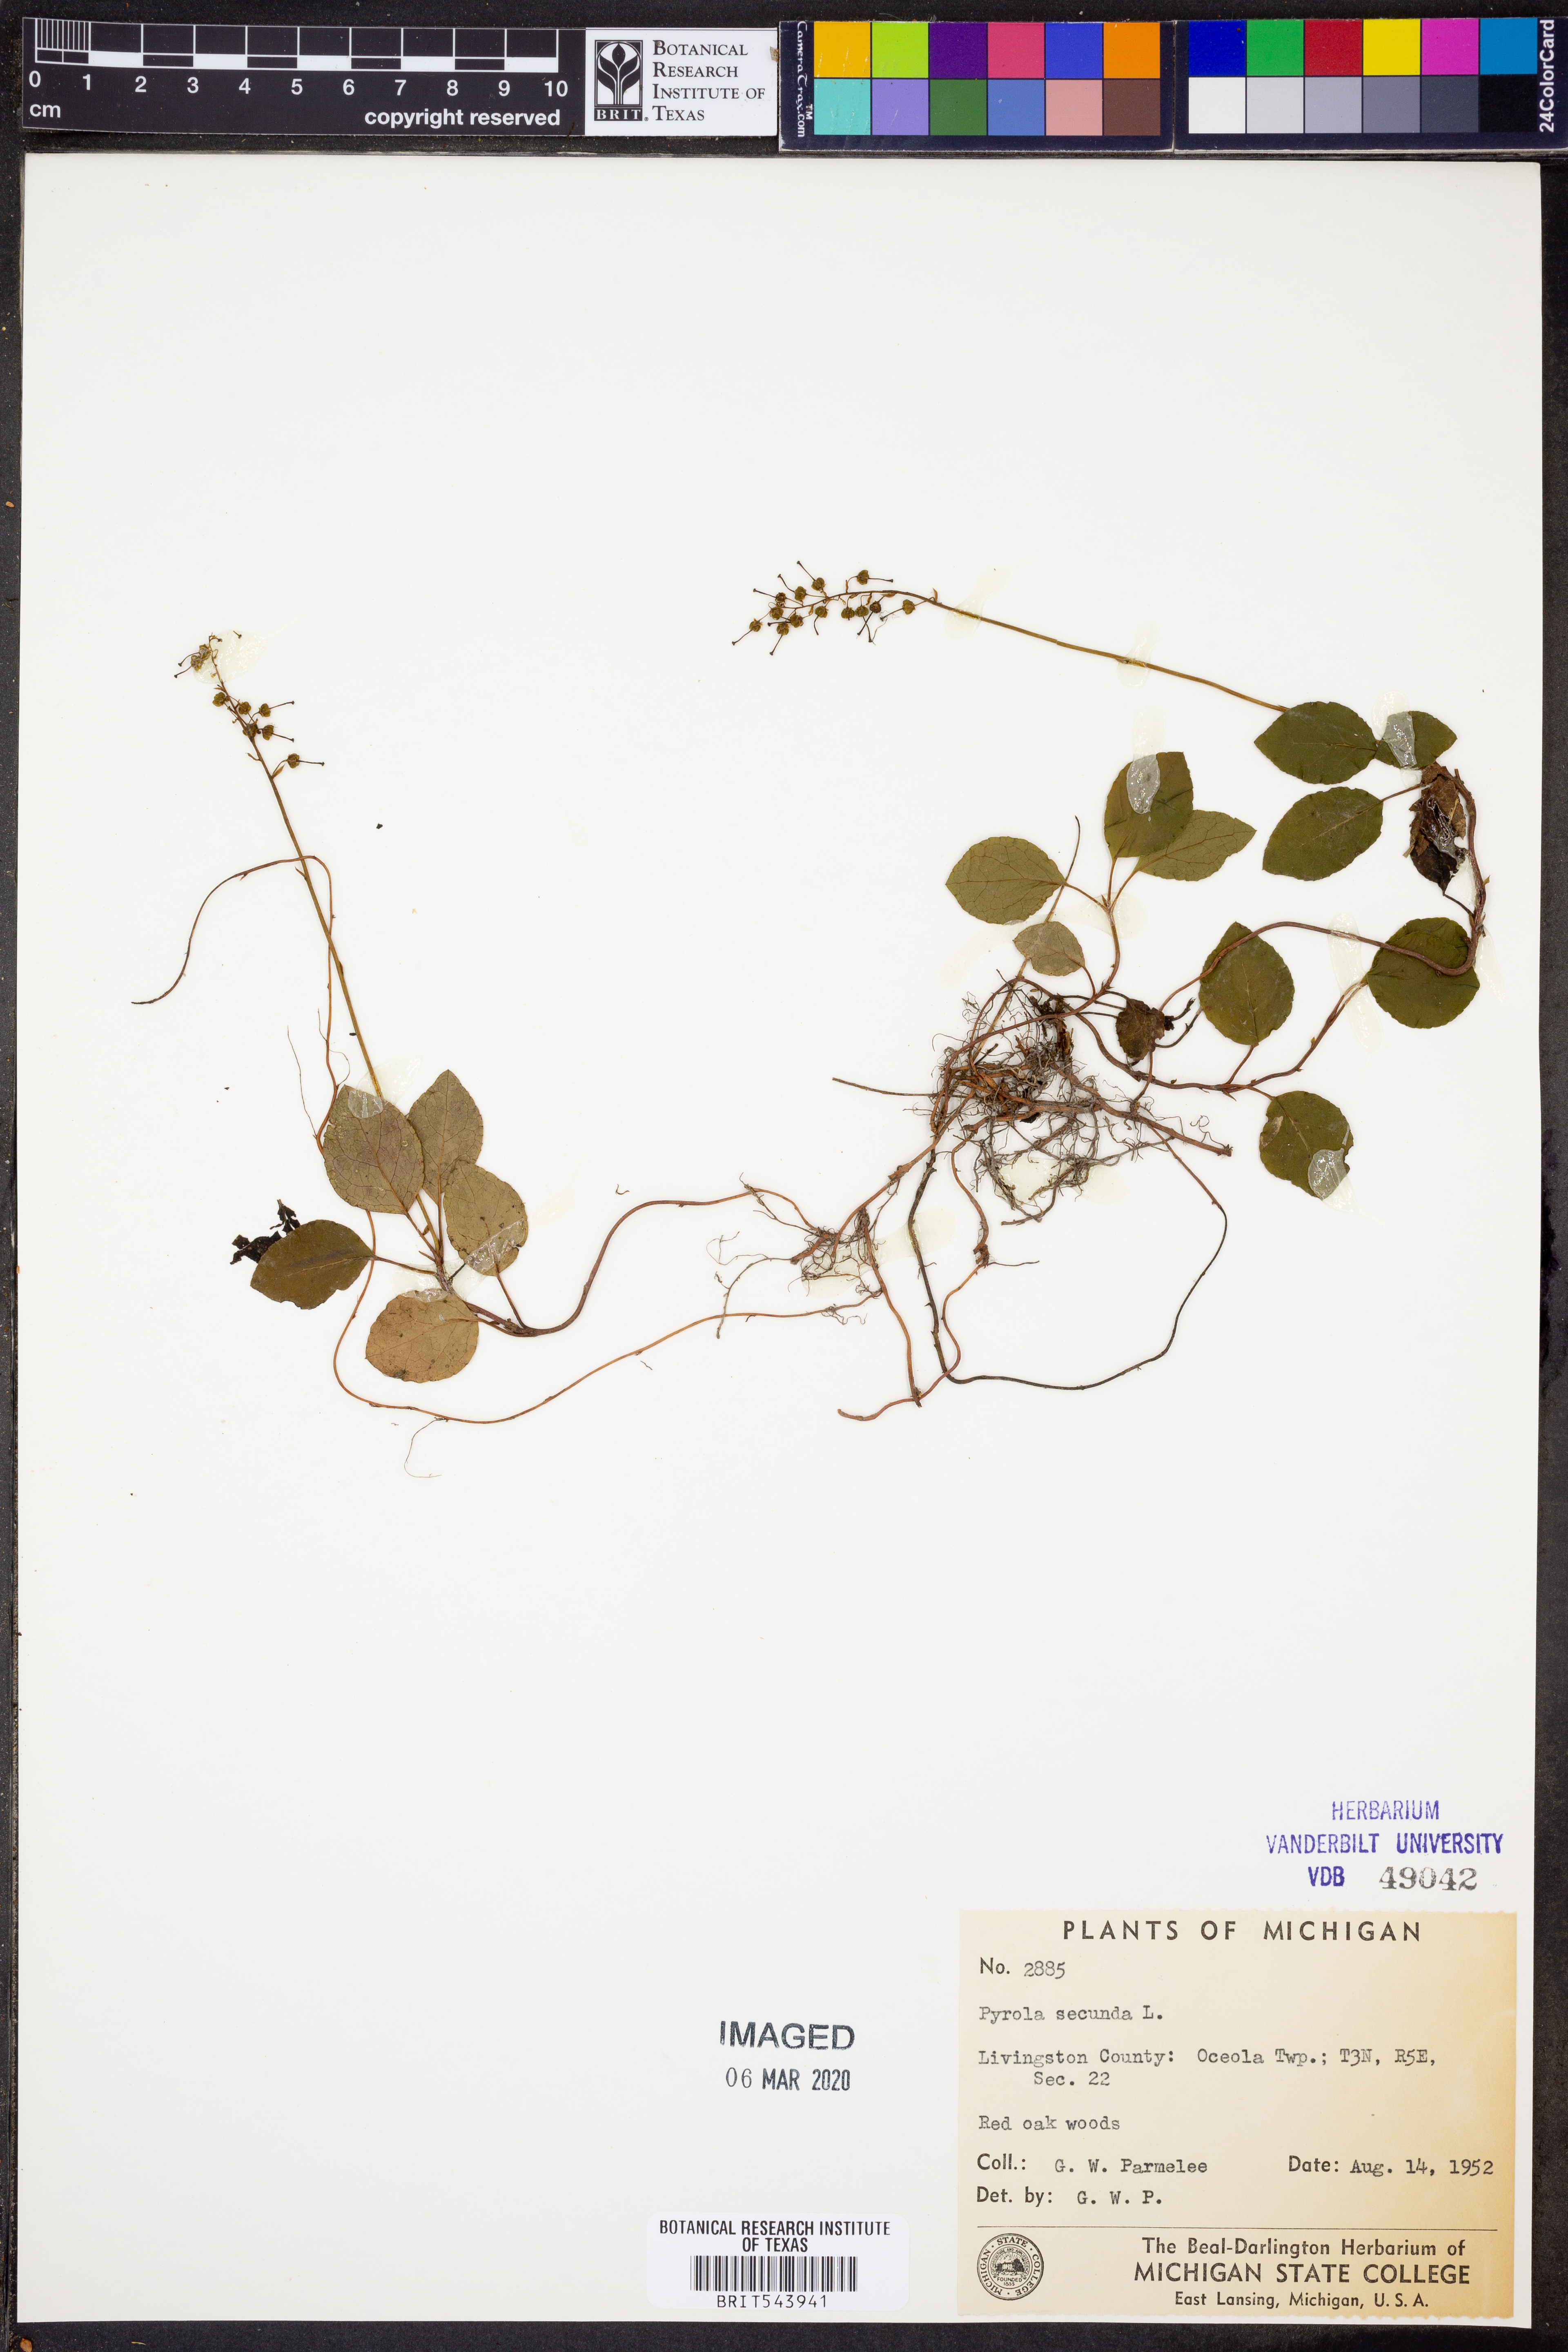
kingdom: Plantae
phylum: Tracheophyta
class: Magnoliopsida
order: Ericales
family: Ericaceae
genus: Orthilia
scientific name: Orthilia secunda
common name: One-sided orthilia
